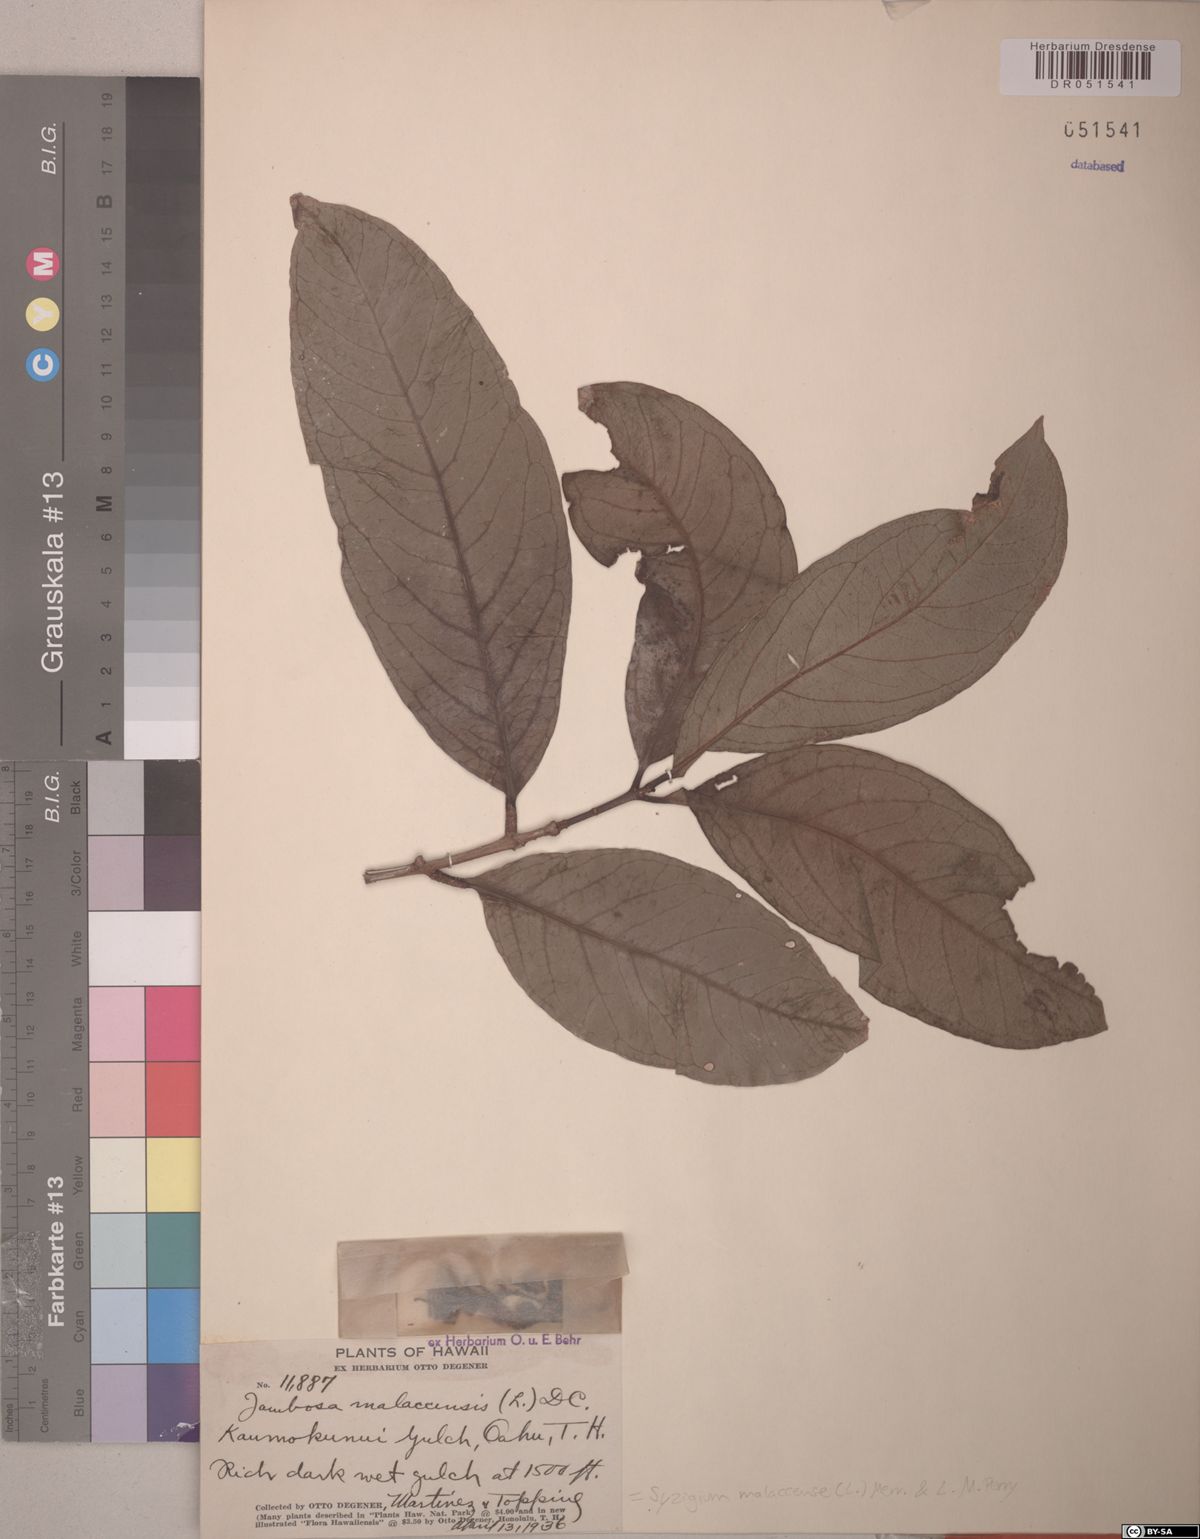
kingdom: Plantae
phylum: Tracheophyta
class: Magnoliopsida
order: Myrtales
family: Myrtaceae
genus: Syzygium
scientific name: Syzygium malaccense
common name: Malaysian apple
